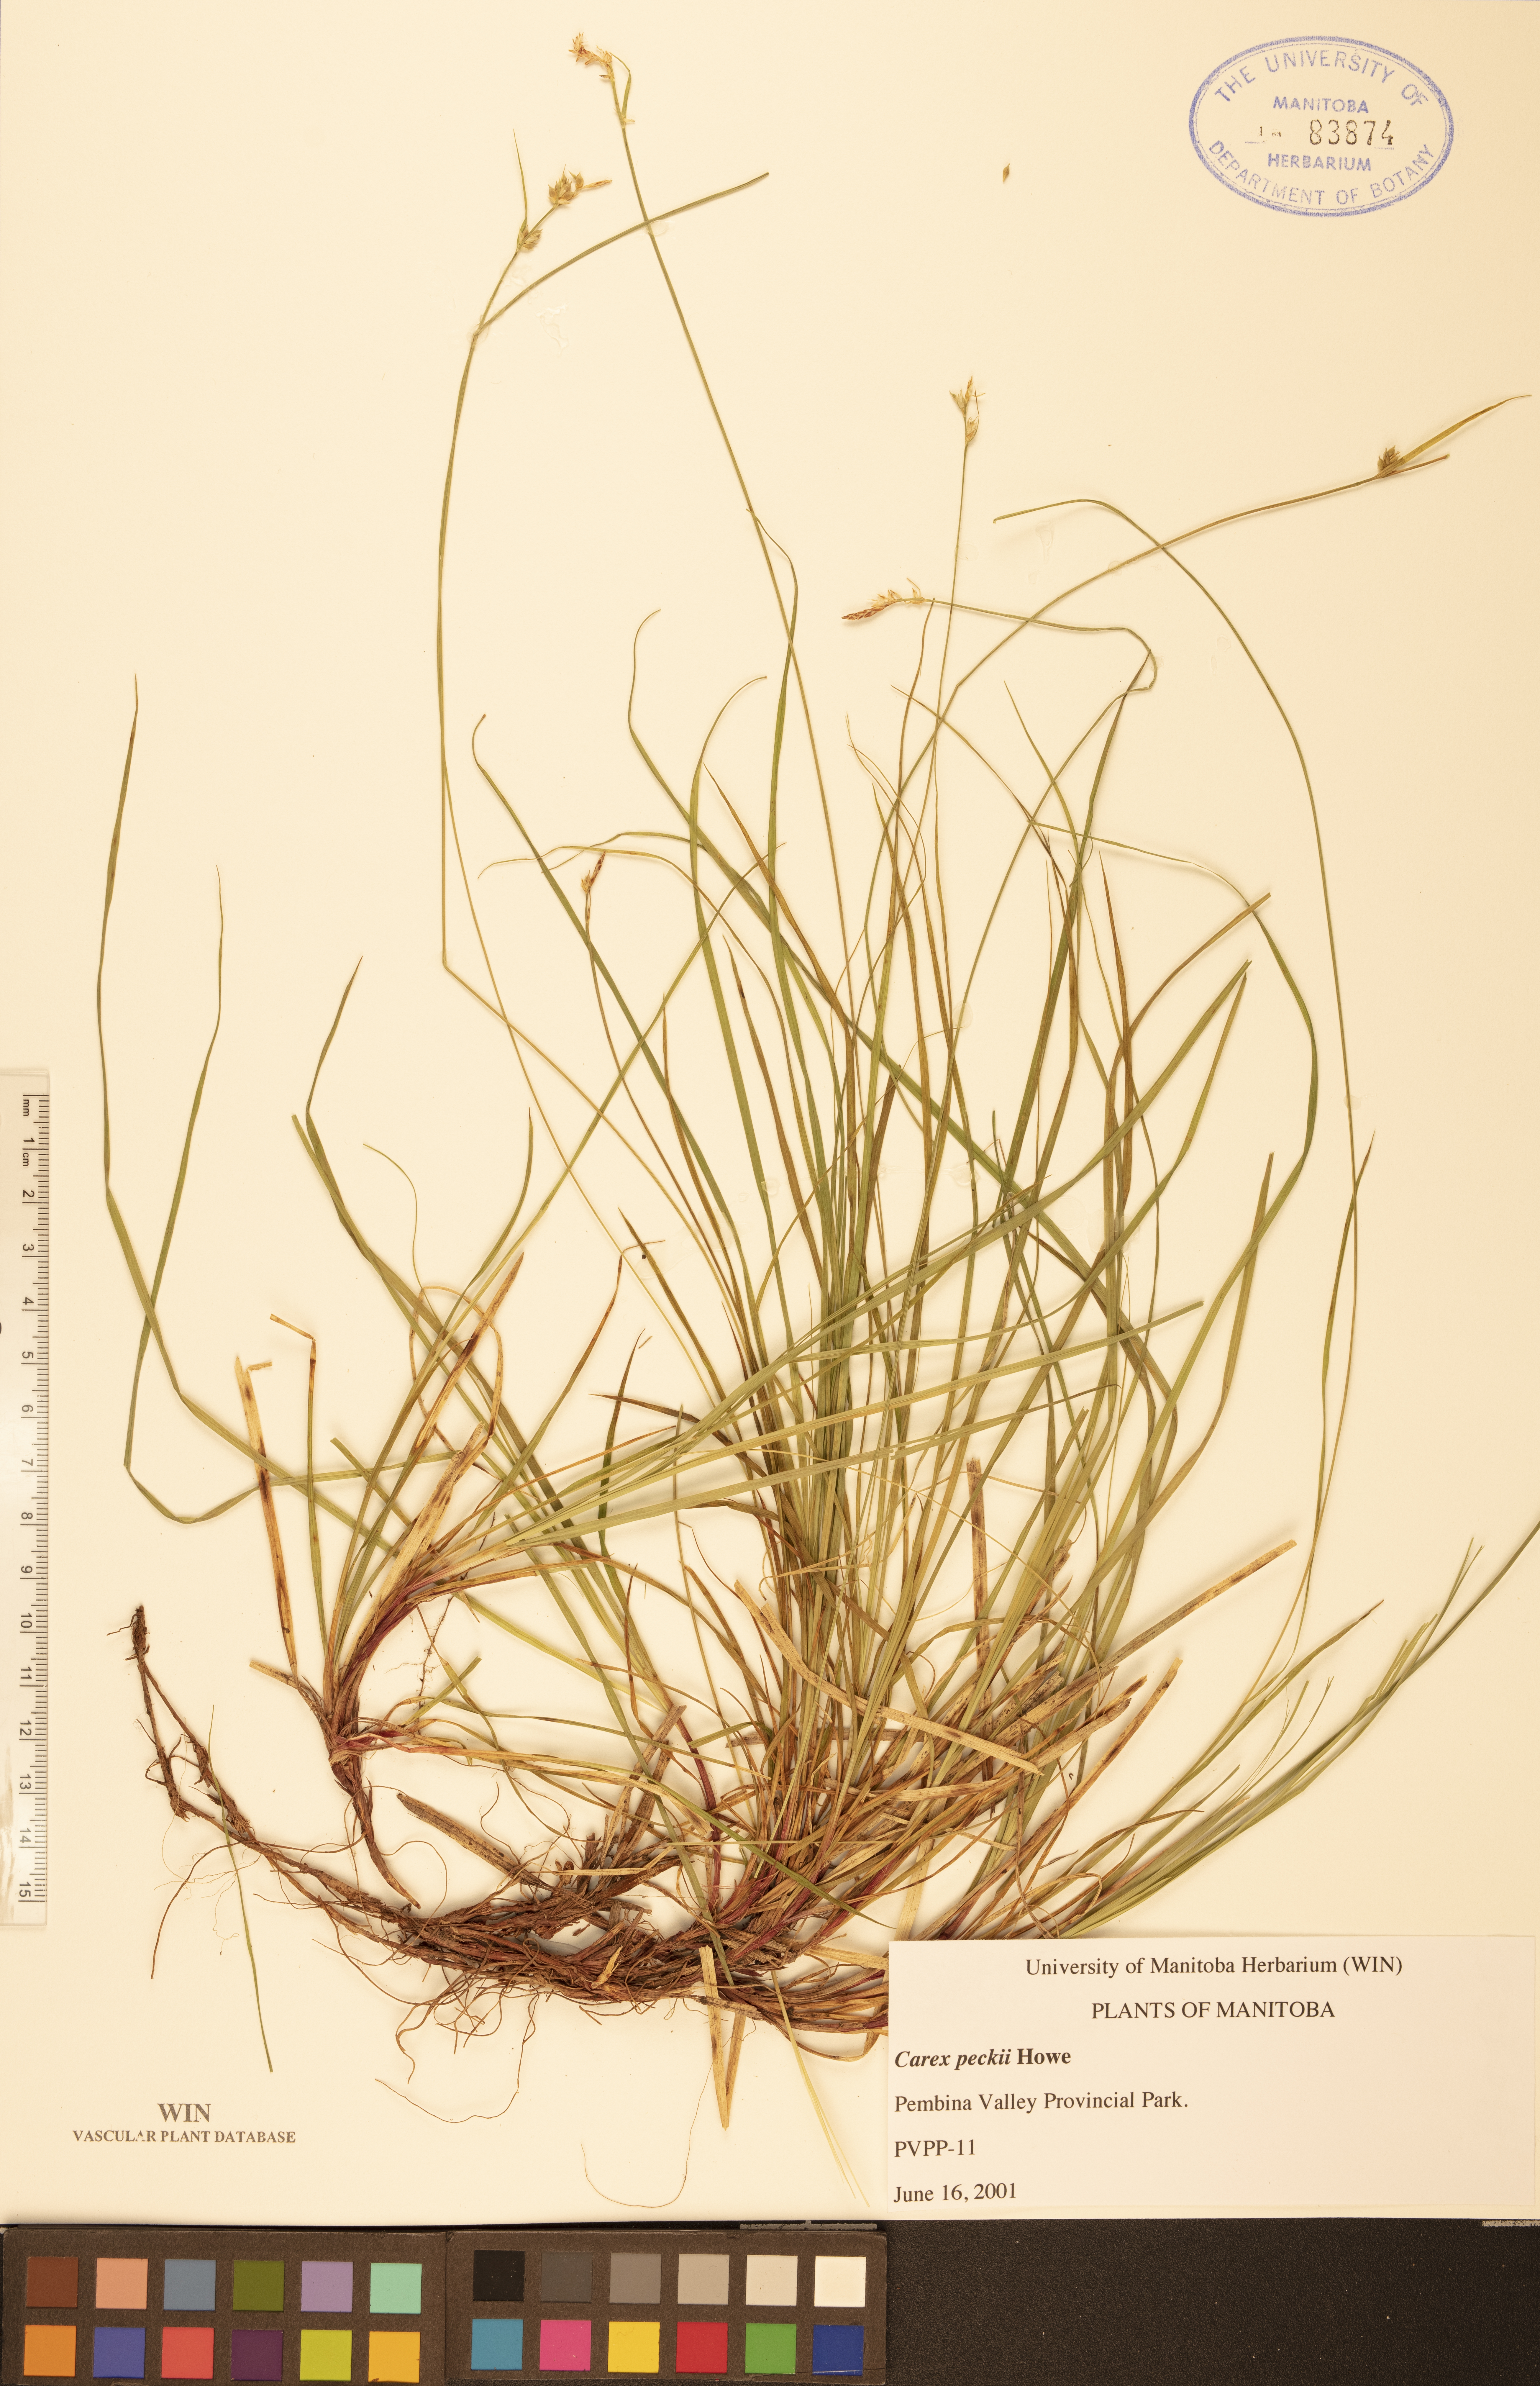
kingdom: Plantae
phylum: Tracheophyta
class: Liliopsida
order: Poales
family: Cyperaceae
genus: Carex
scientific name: Carex peckii
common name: Peck's oak sedge
